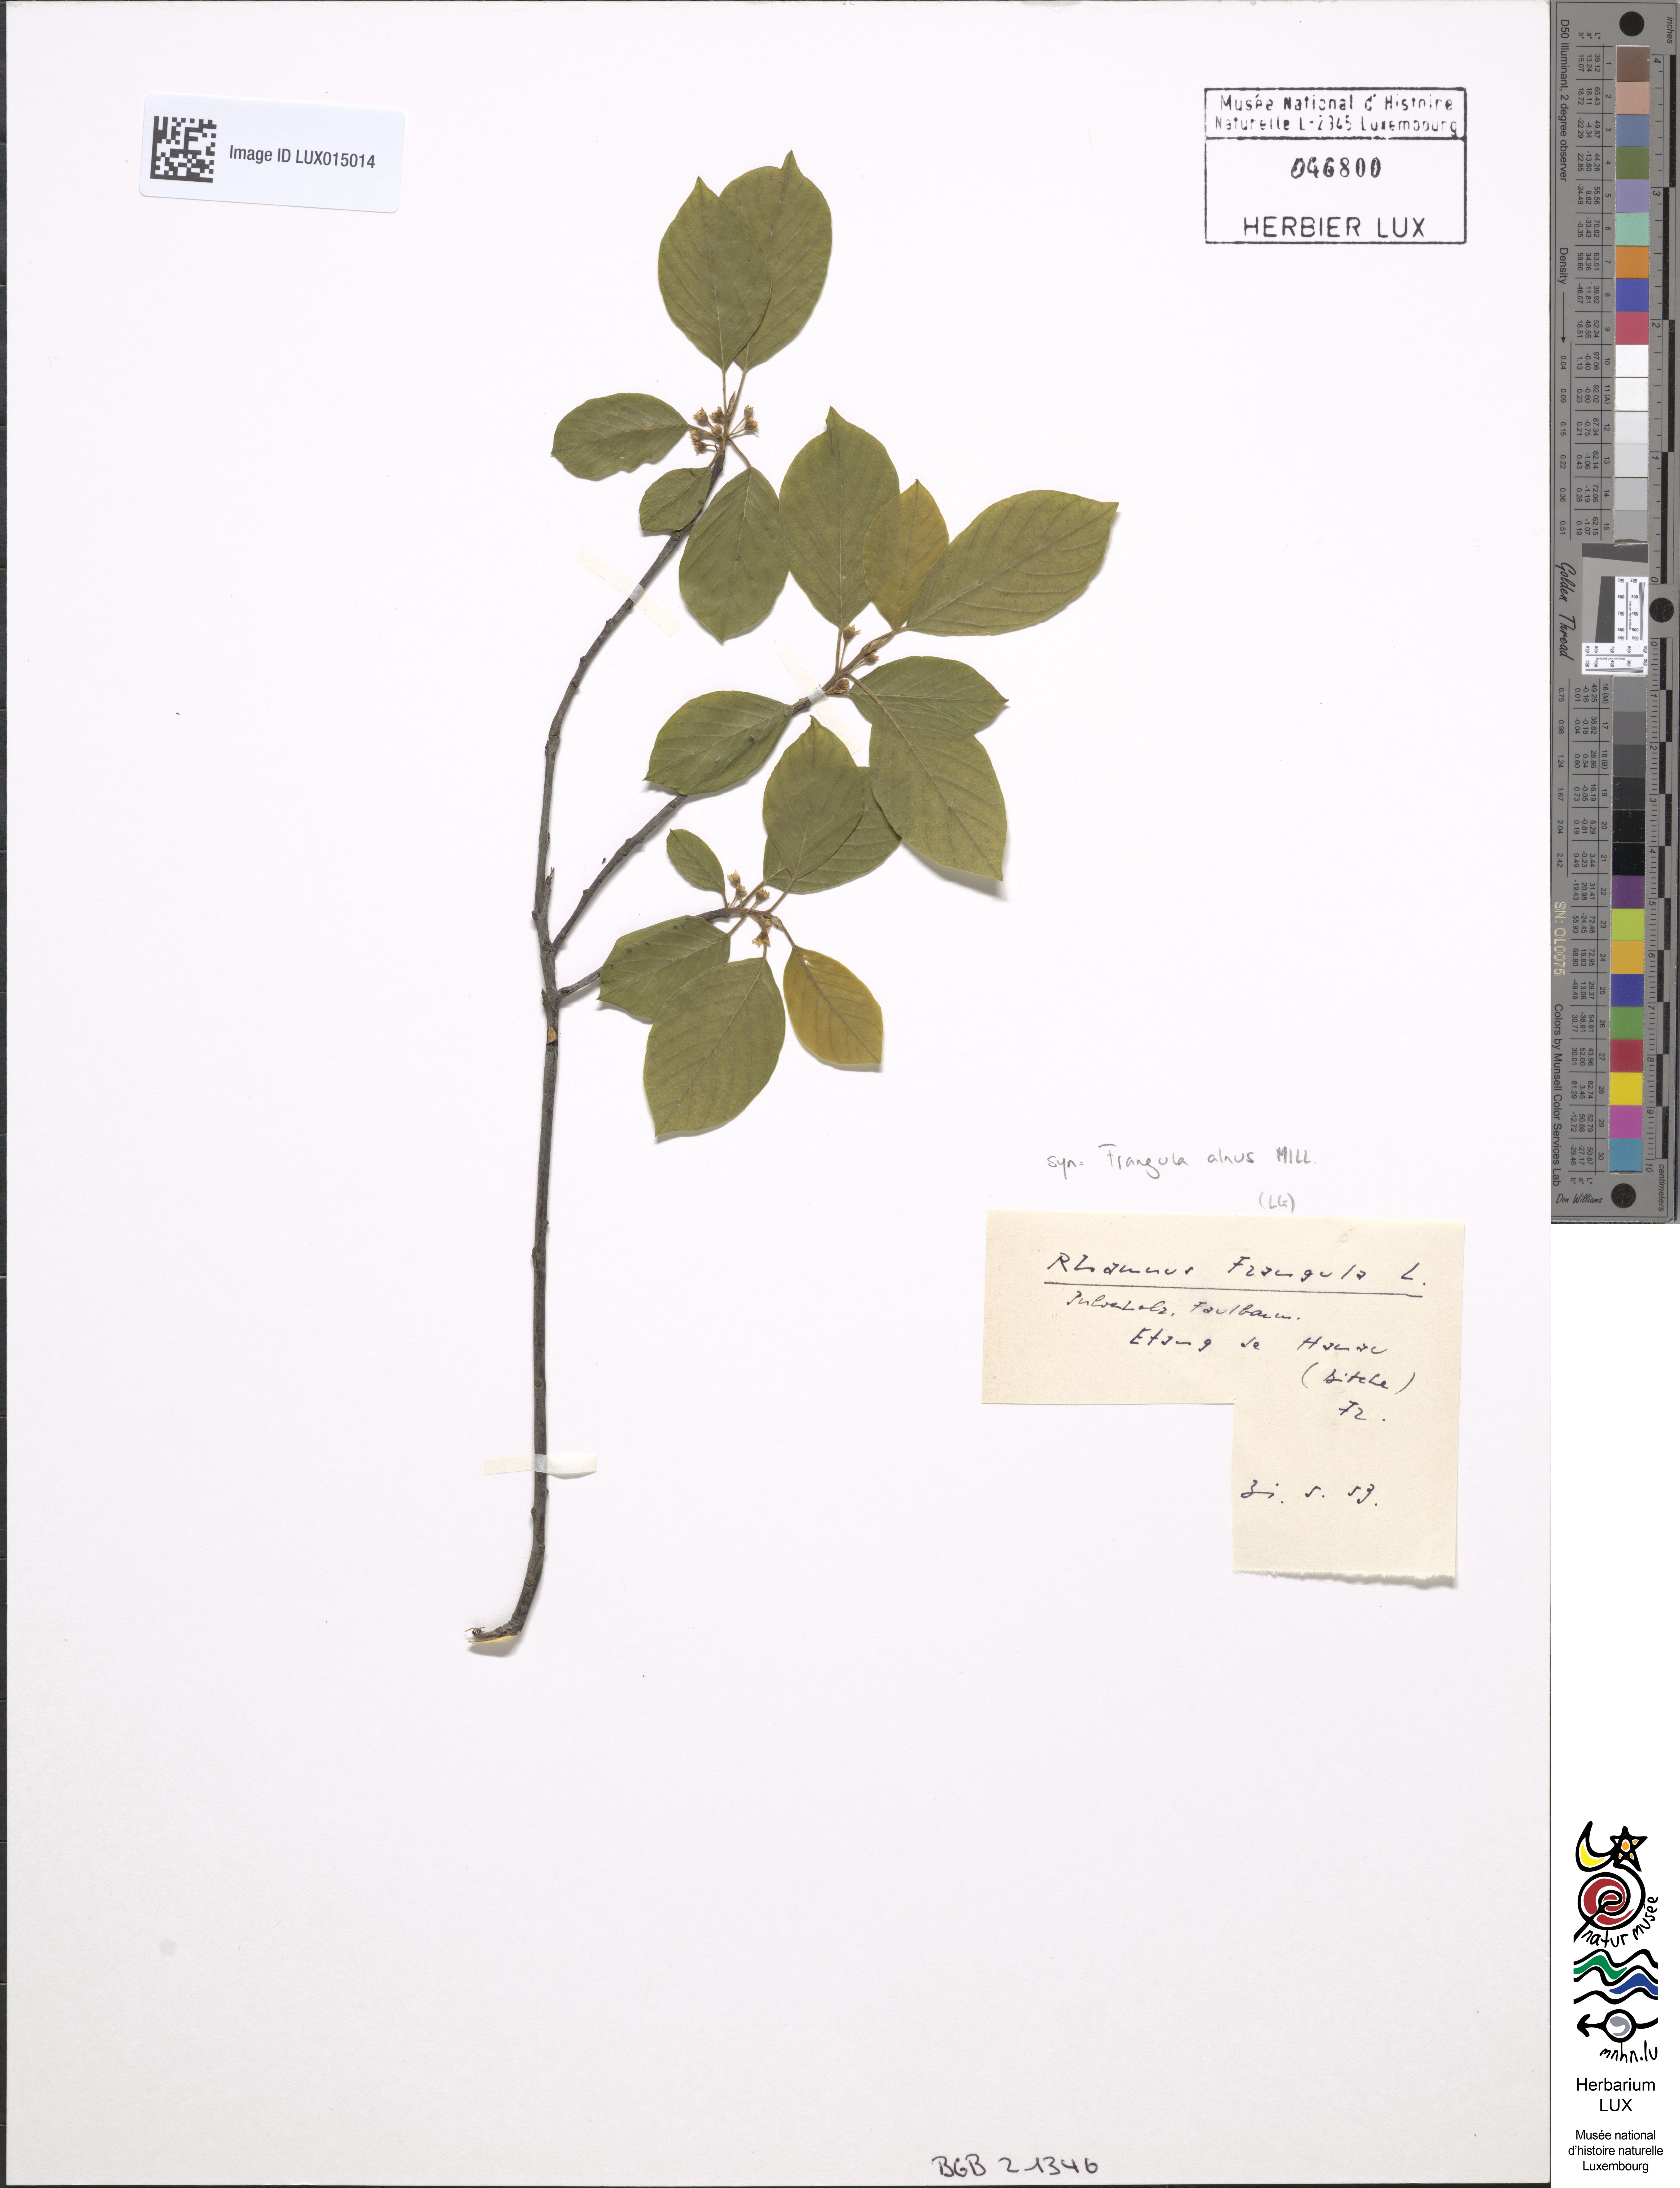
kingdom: Plantae
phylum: Tracheophyta
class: Magnoliopsida
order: Rosales
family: Rhamnaceae
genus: Frangula
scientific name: Frangula alnus
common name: Alder buckthorn
